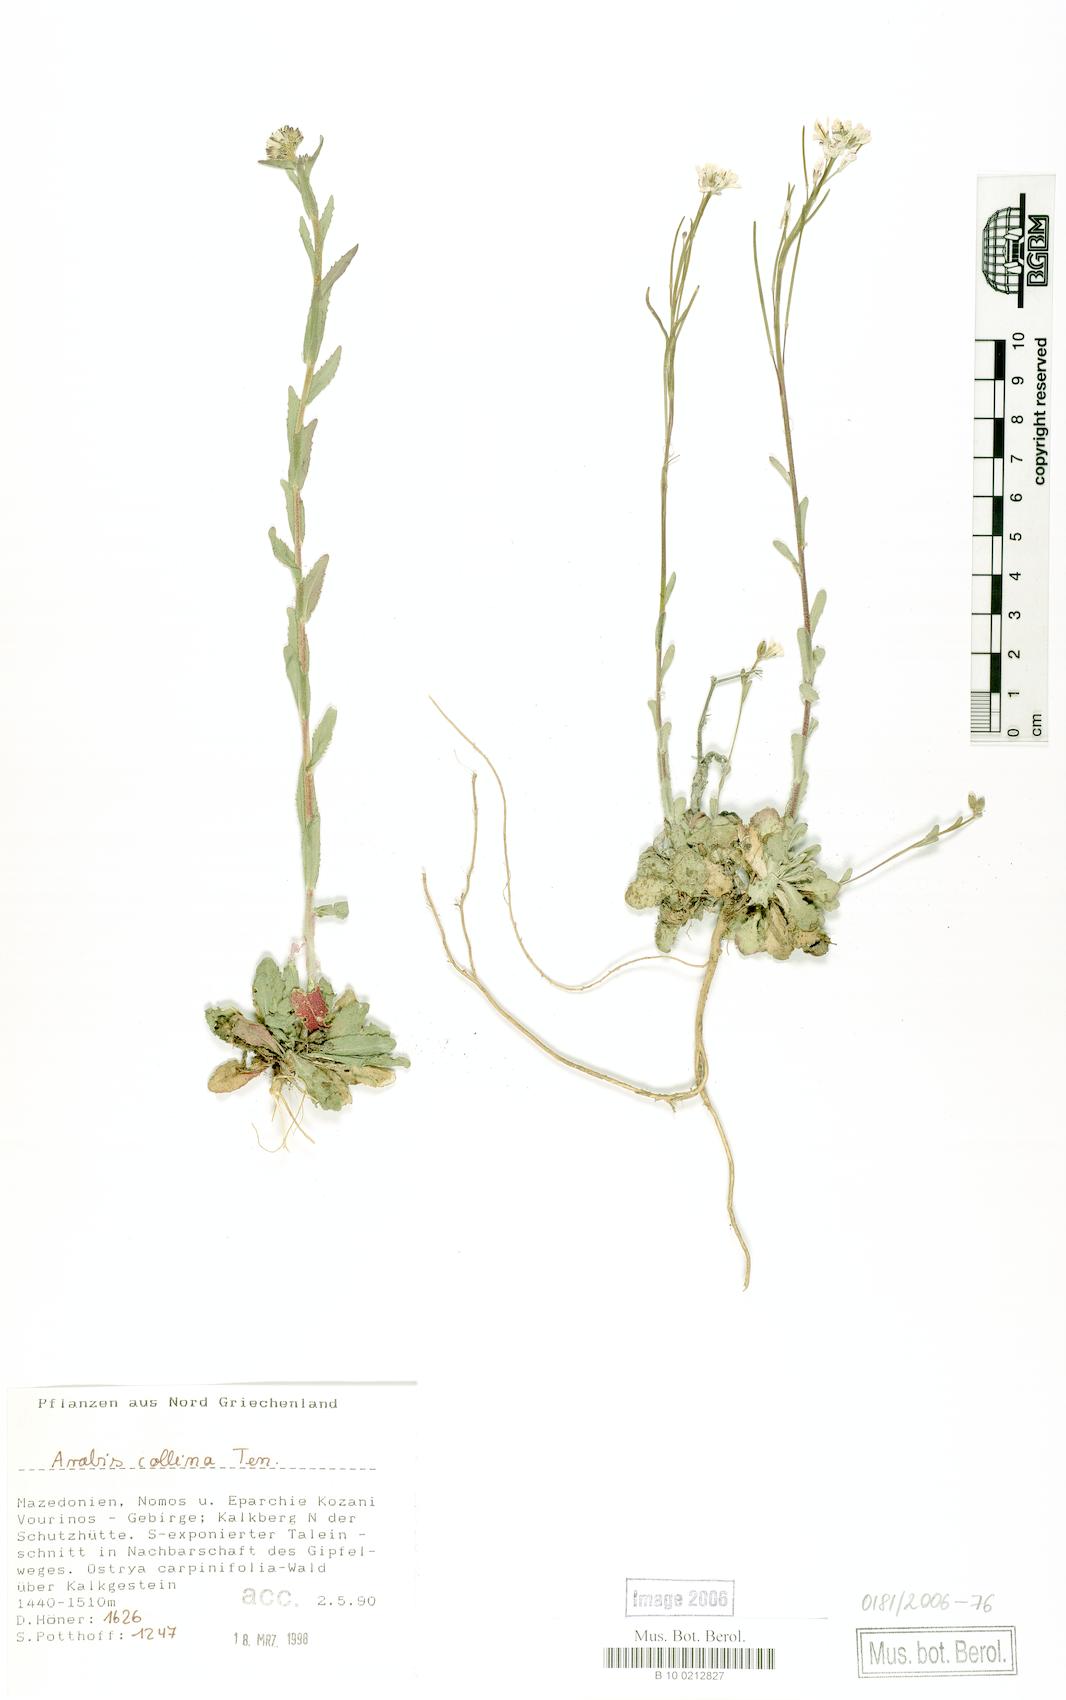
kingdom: Plantae
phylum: Tracheophyta
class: Magnoliopsida
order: Brassicales
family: Brassicaceae
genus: Arabis
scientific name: Arabis collina
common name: Rosy cress
